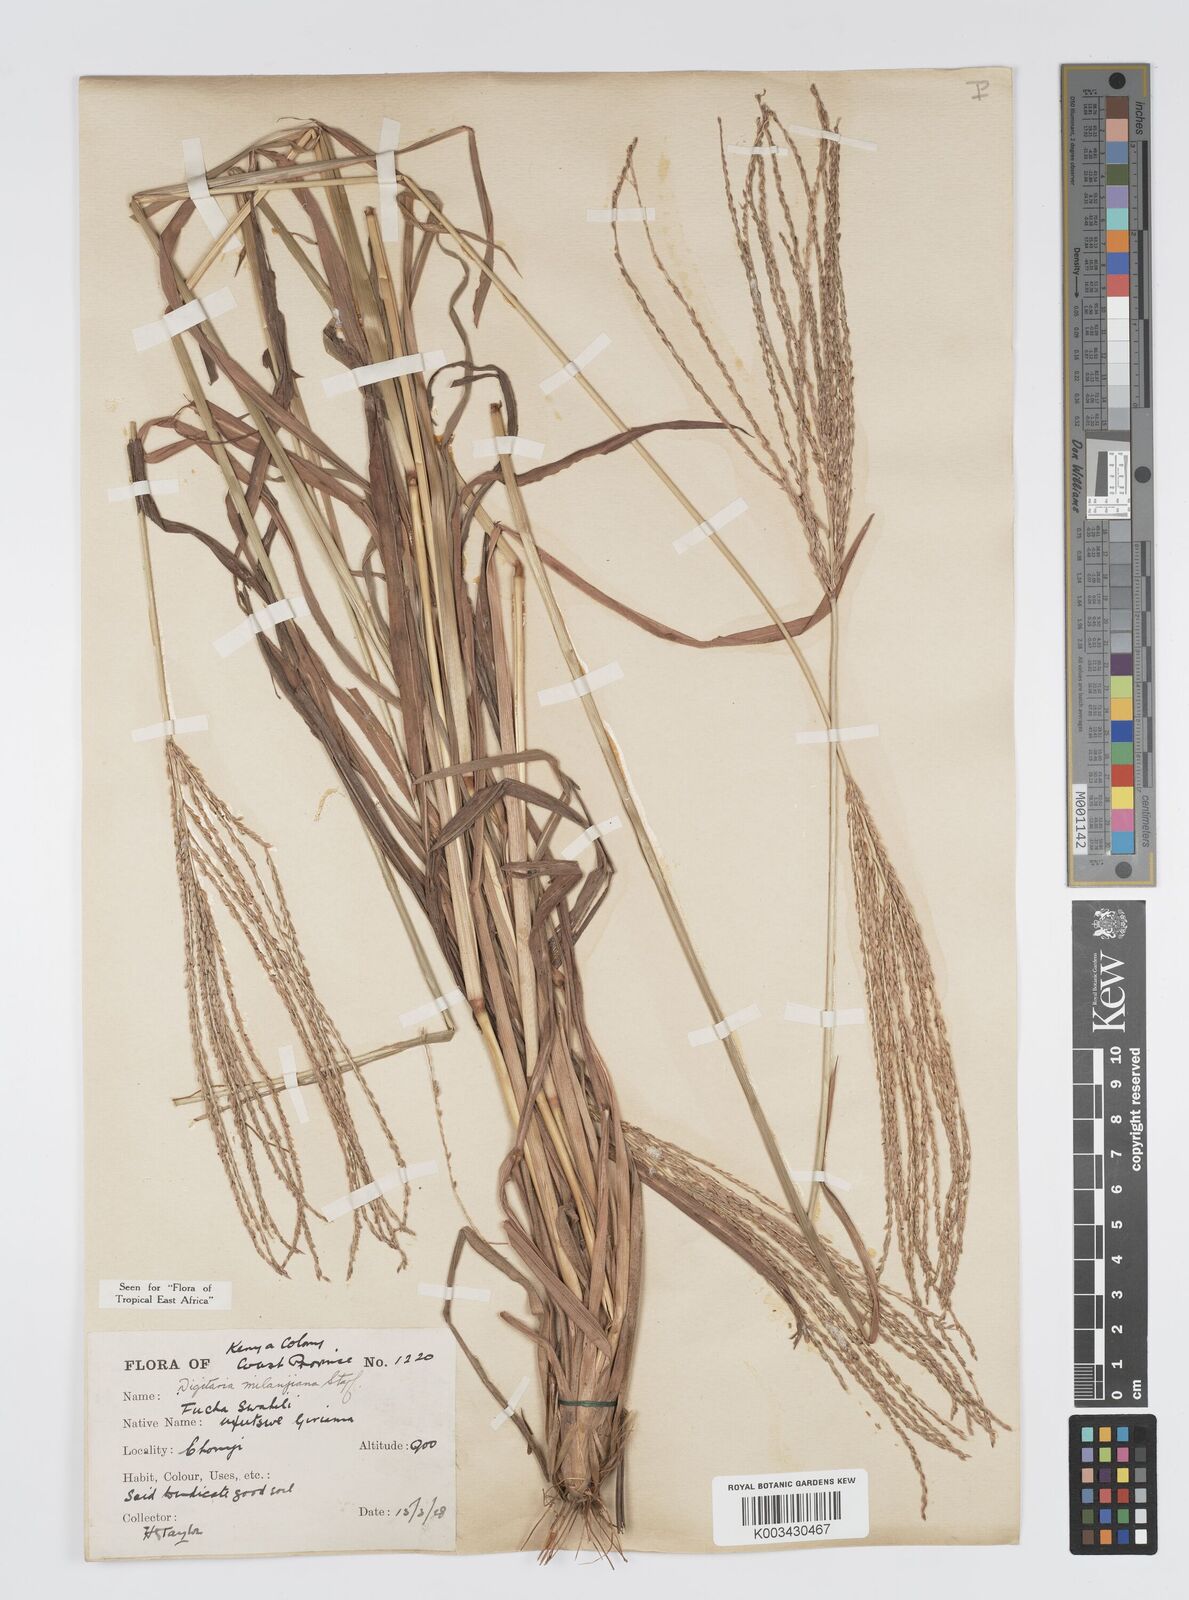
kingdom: Plantae
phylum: Tracheophyta
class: Liliopsida
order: Poales
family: Poaceae
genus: Digitaria
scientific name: Digitaria milanjiana
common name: Madagascar crabgrass
